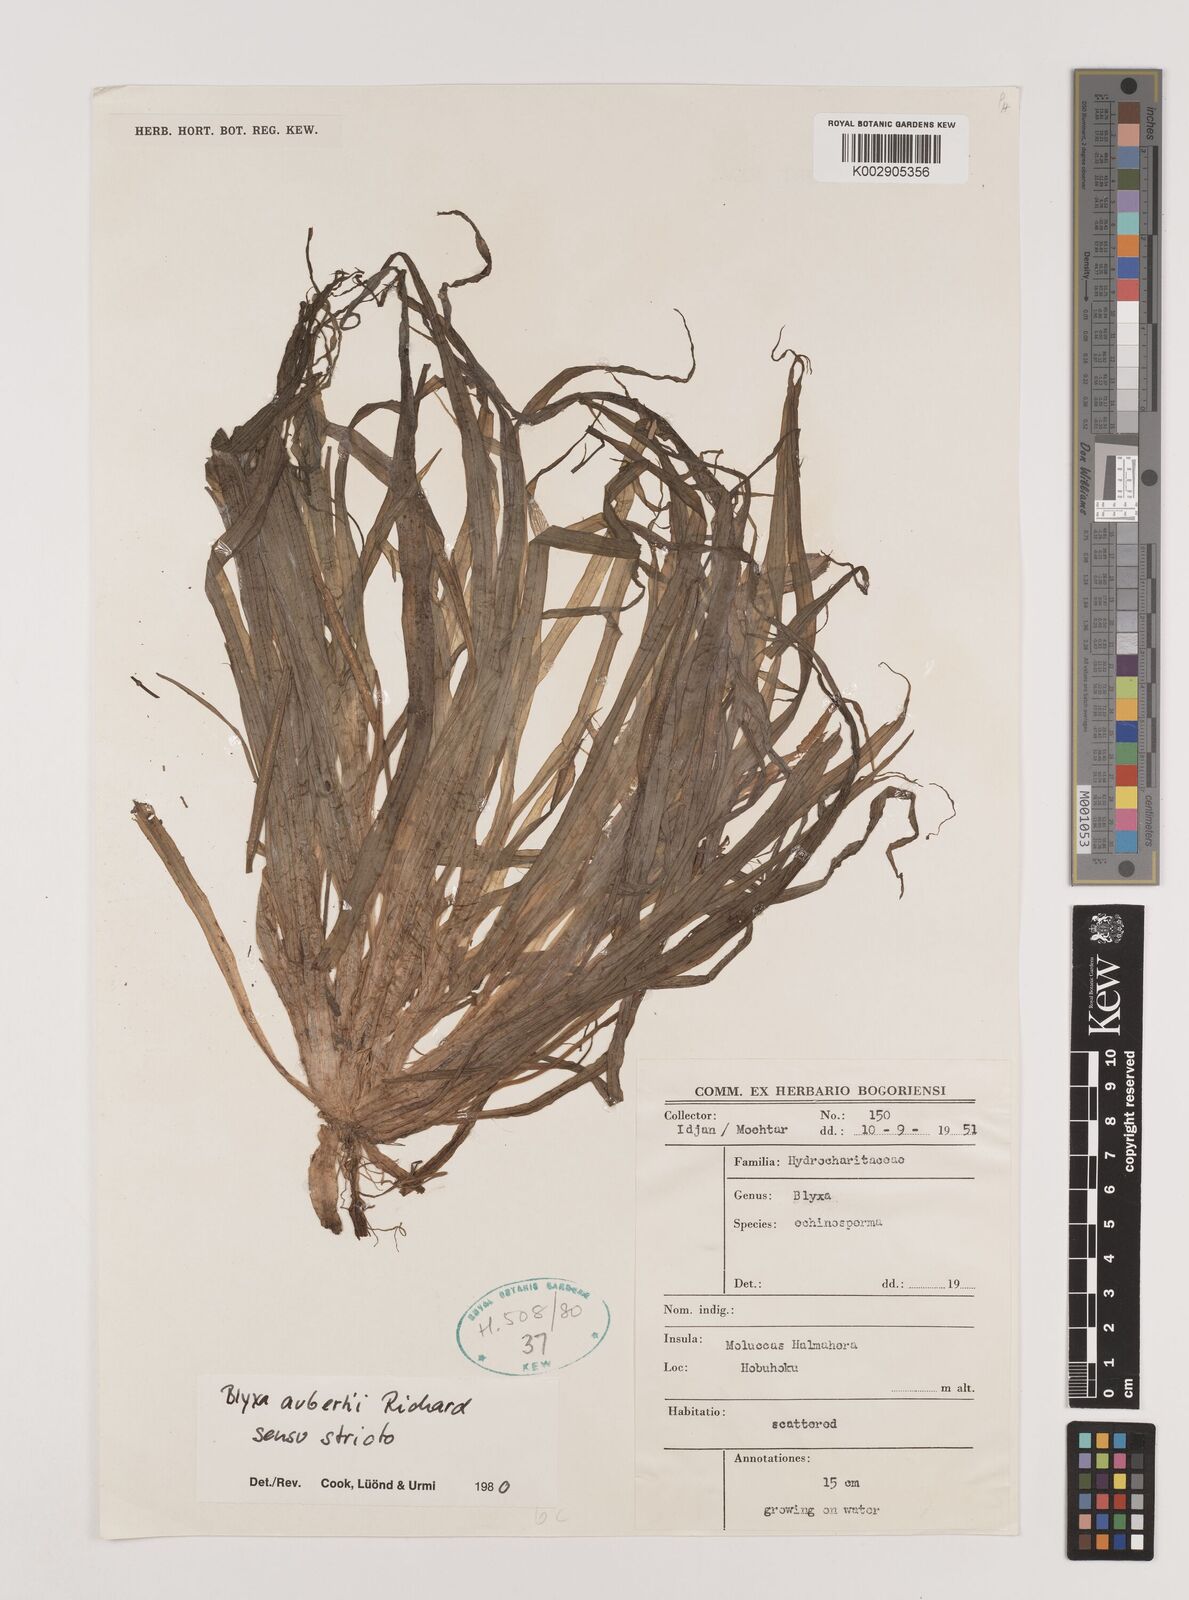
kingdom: Plantae
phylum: Tracheophyta
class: Liliopsida
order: Alismatales
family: Hydrocharitaceae
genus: Blyxa
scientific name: Blyxa aubertii
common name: Roundfruit blyxa
